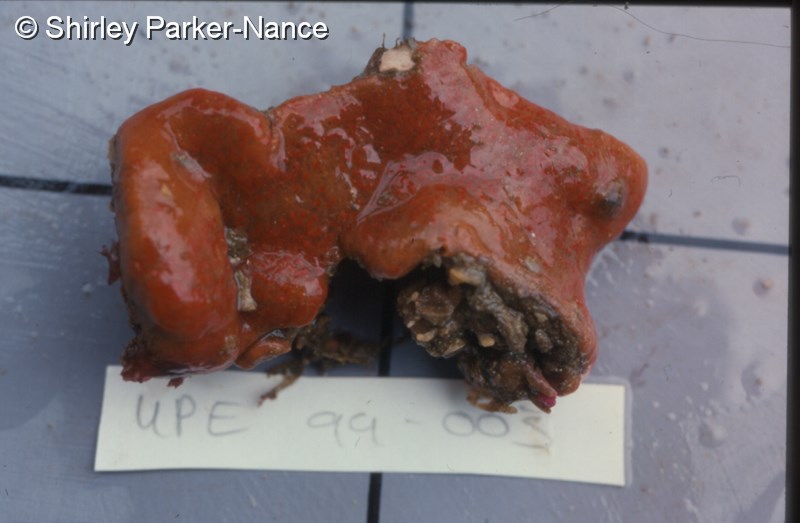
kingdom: Animalia
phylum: Chordata
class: Ascidiacea
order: Aplousobranchia
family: Polyclinidae
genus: Aplidium
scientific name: Aplidium flavolineatum
